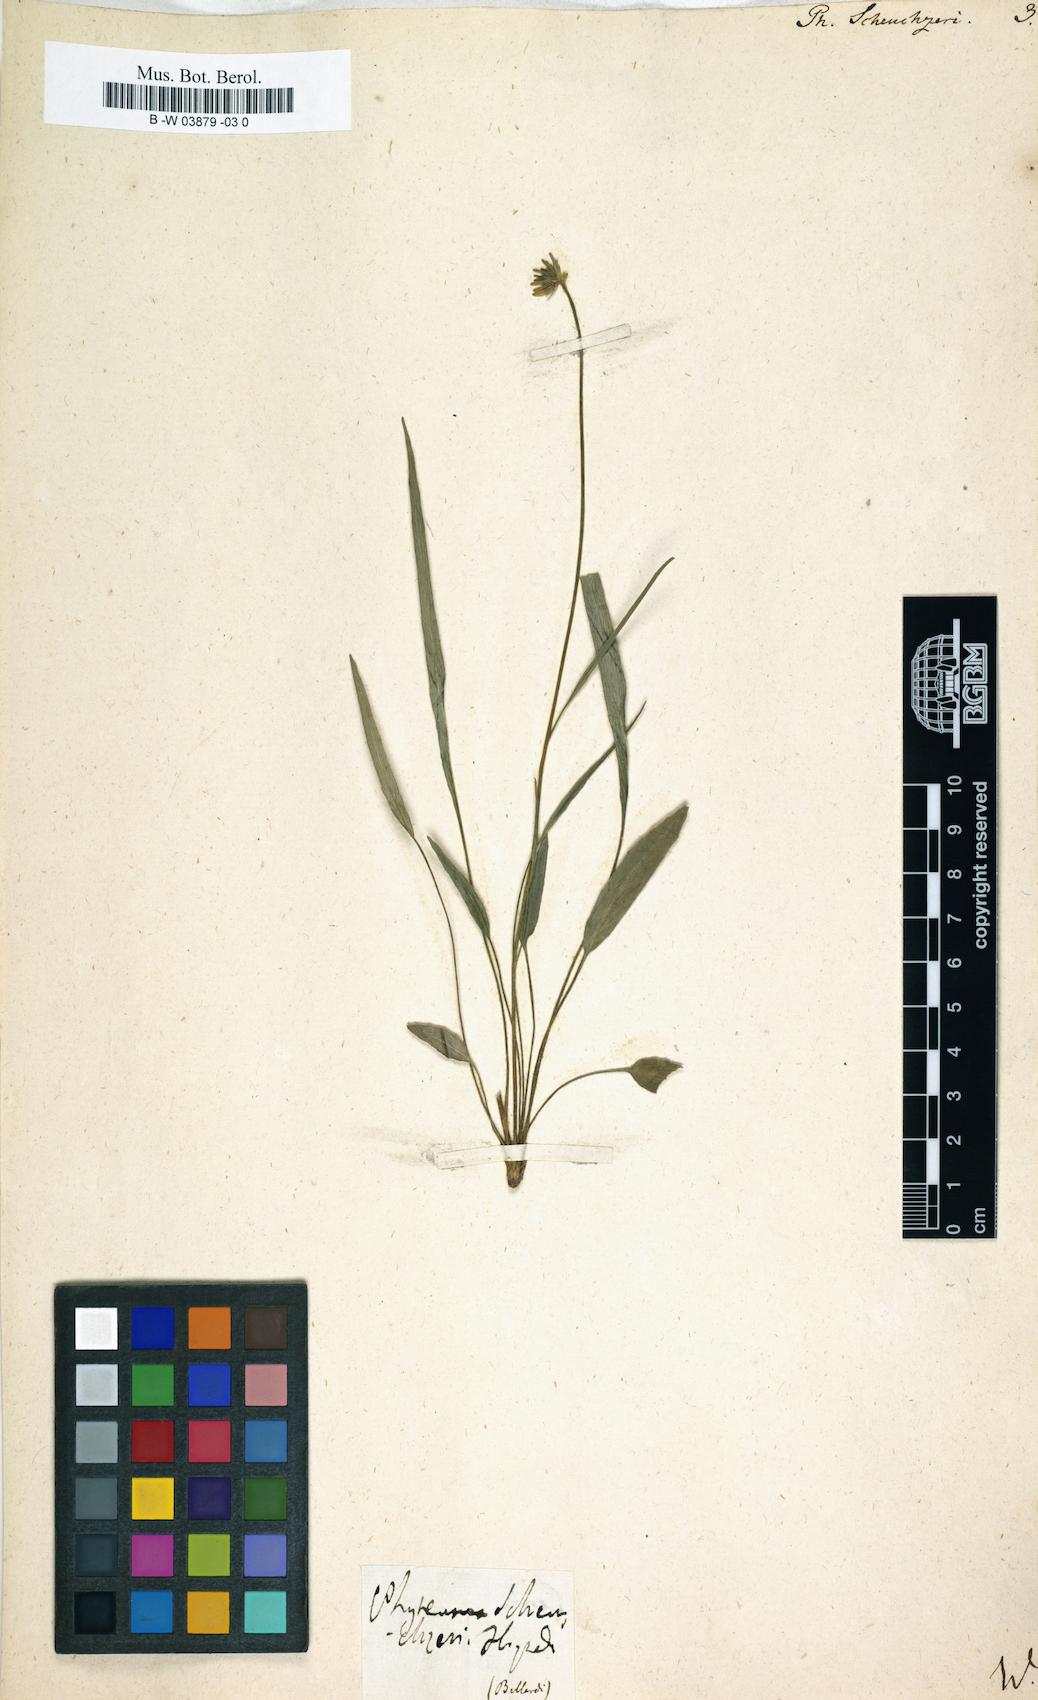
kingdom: Plantae
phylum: Tracheophyta
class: Magnoliopsida
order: Asterales
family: Campanulaceae
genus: Phyteuma
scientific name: Phyteuma scheuchzeri
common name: Oxford rampion
